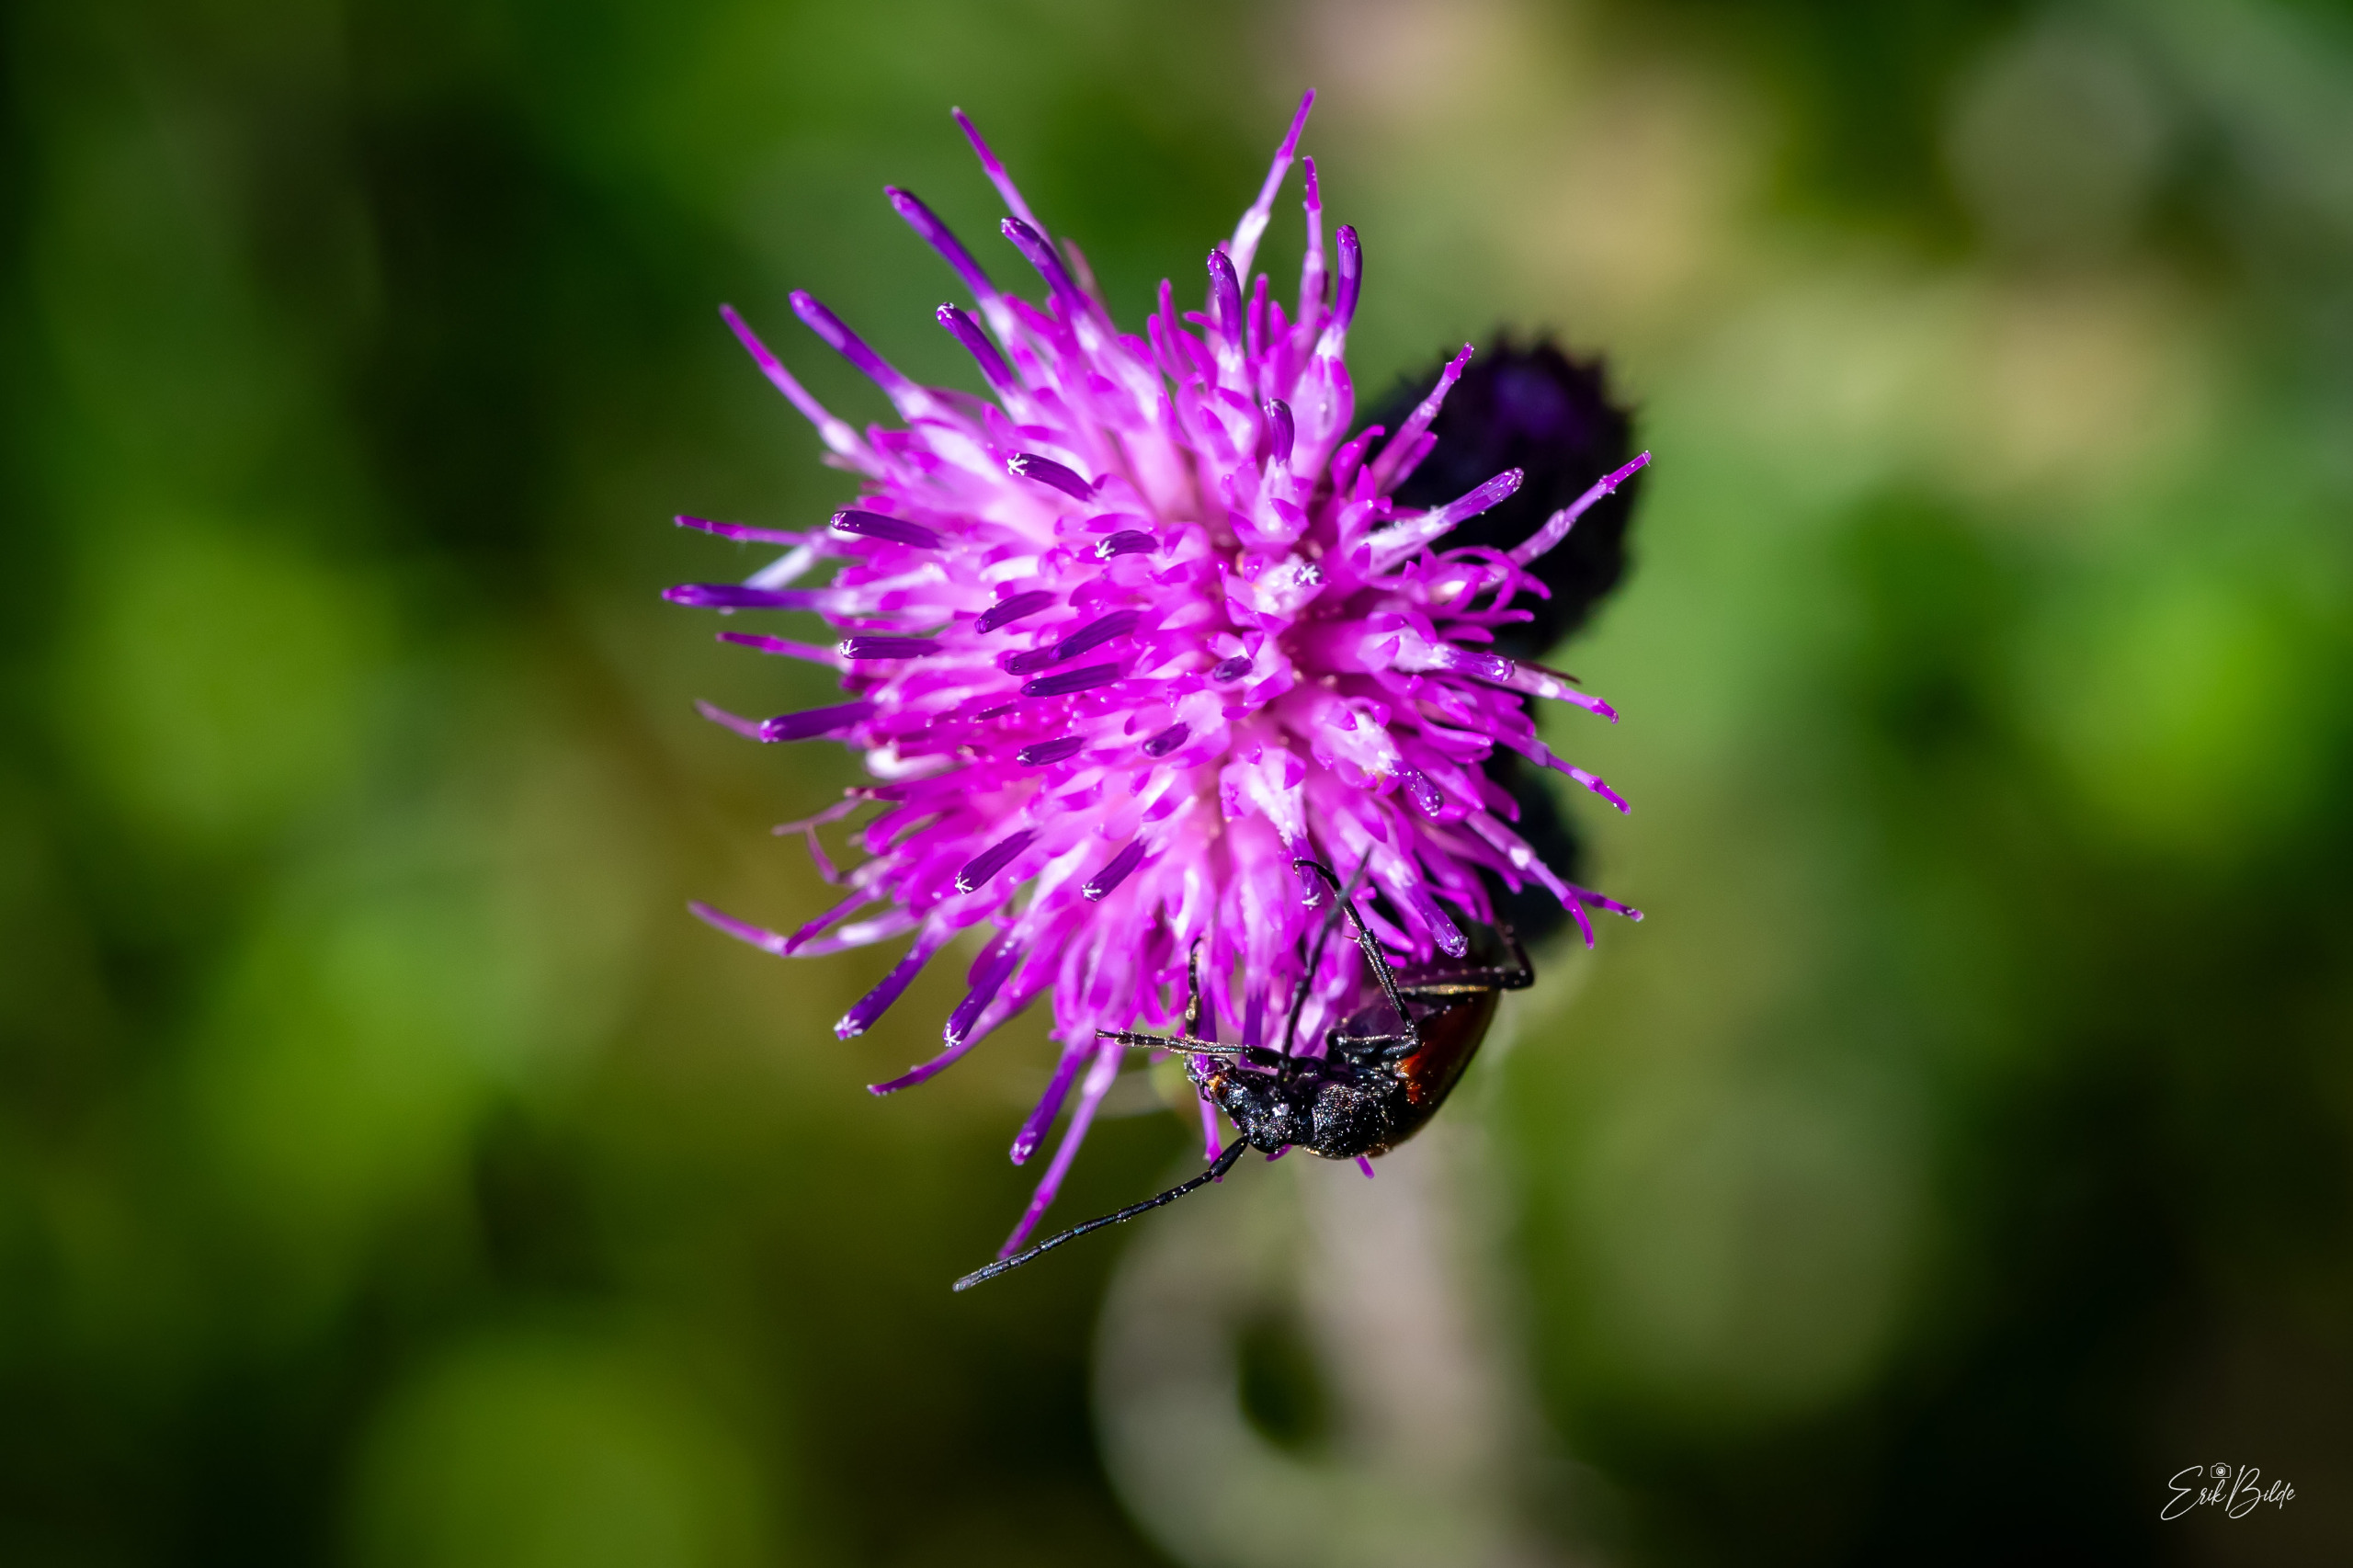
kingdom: Animalia
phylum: Arthropoda
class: Insecta
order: Coleoptera
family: Cerambycidae
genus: Stenurella
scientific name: Stenurella melanura
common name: Sortsømmet blomsterbuk
